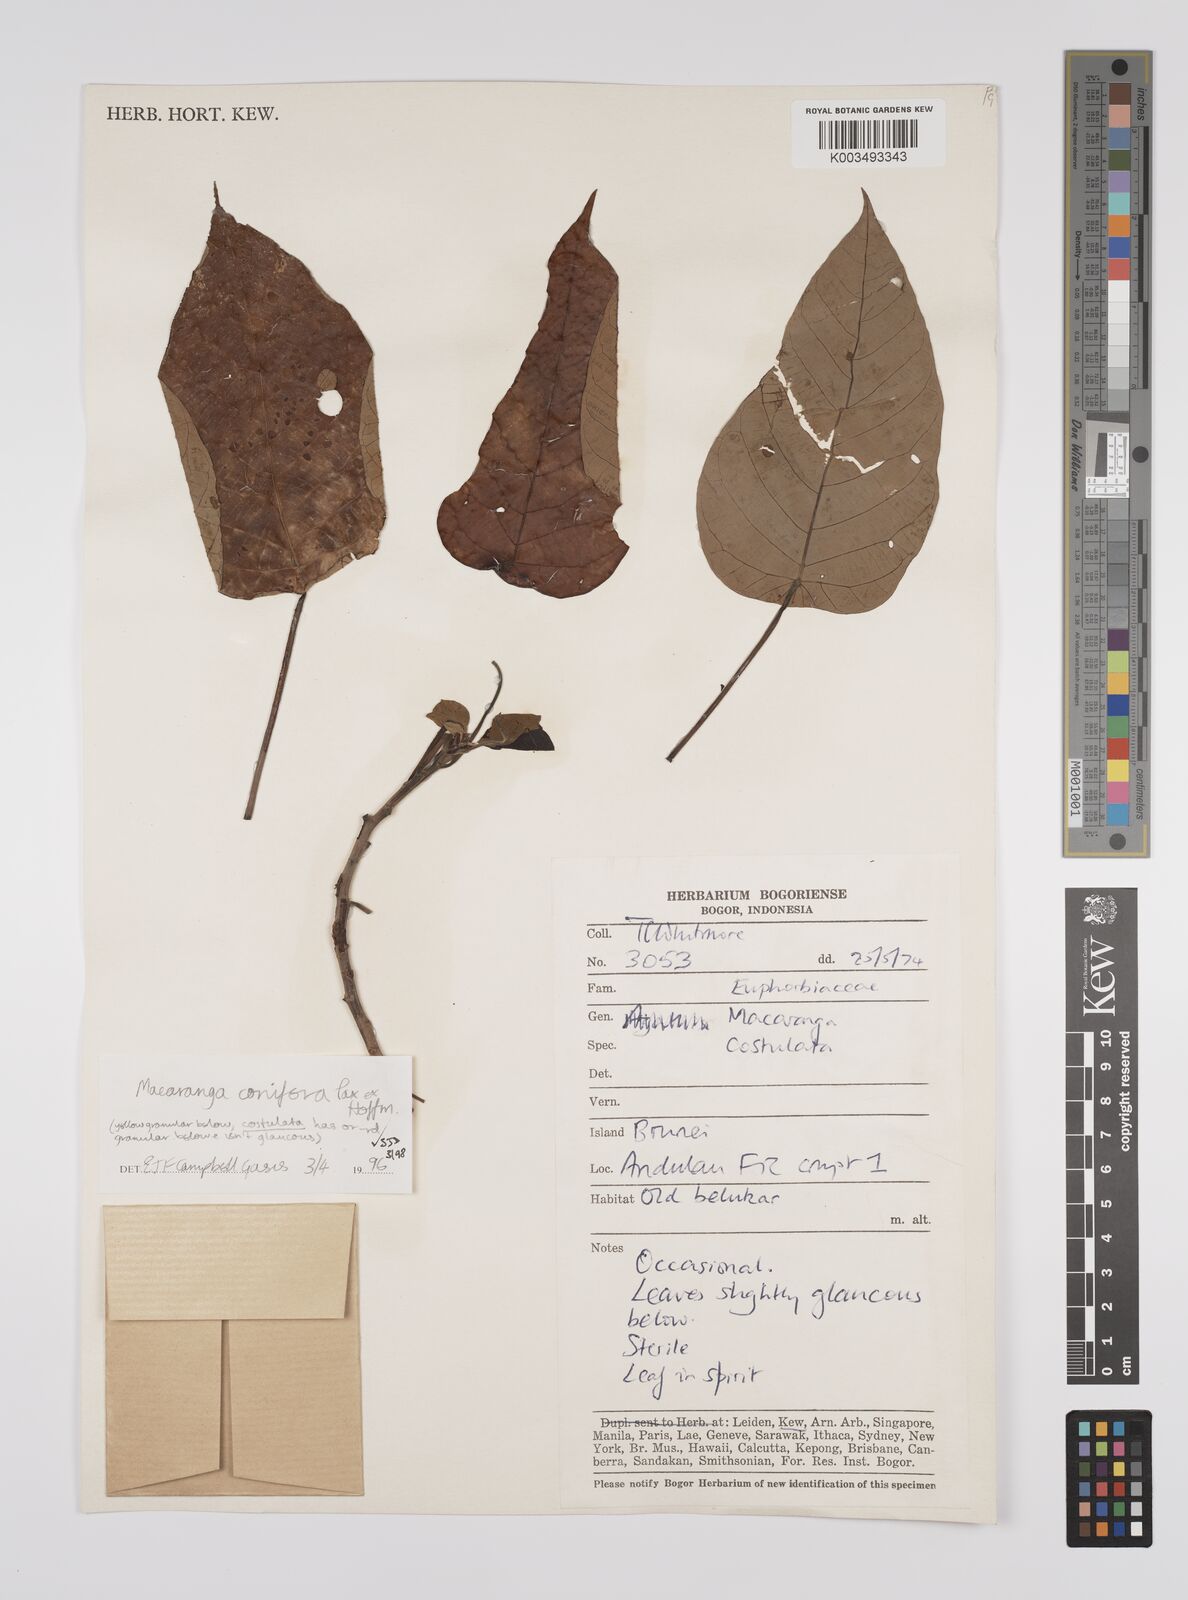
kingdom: Plantae
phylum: Tracheophyta
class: Magnoliopsida
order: Malpighiales
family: Euphorbiaceae
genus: Macaranga
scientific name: Macaranga conifera
